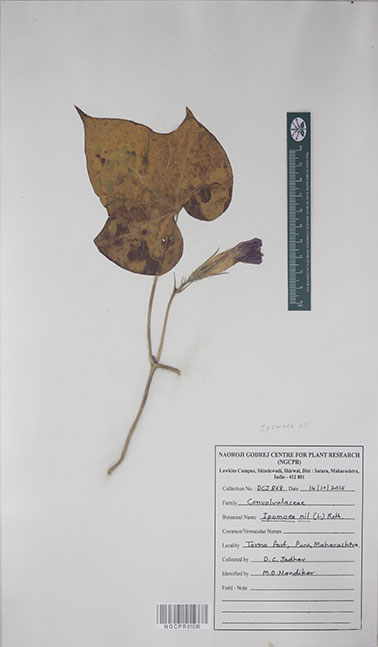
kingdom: Plantae
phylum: Tracheophyta
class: Magnoliopsida
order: Solanales
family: Convolvulaceae
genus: Ipomoea
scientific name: Ipomoea nil
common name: Japanese morning-glory
